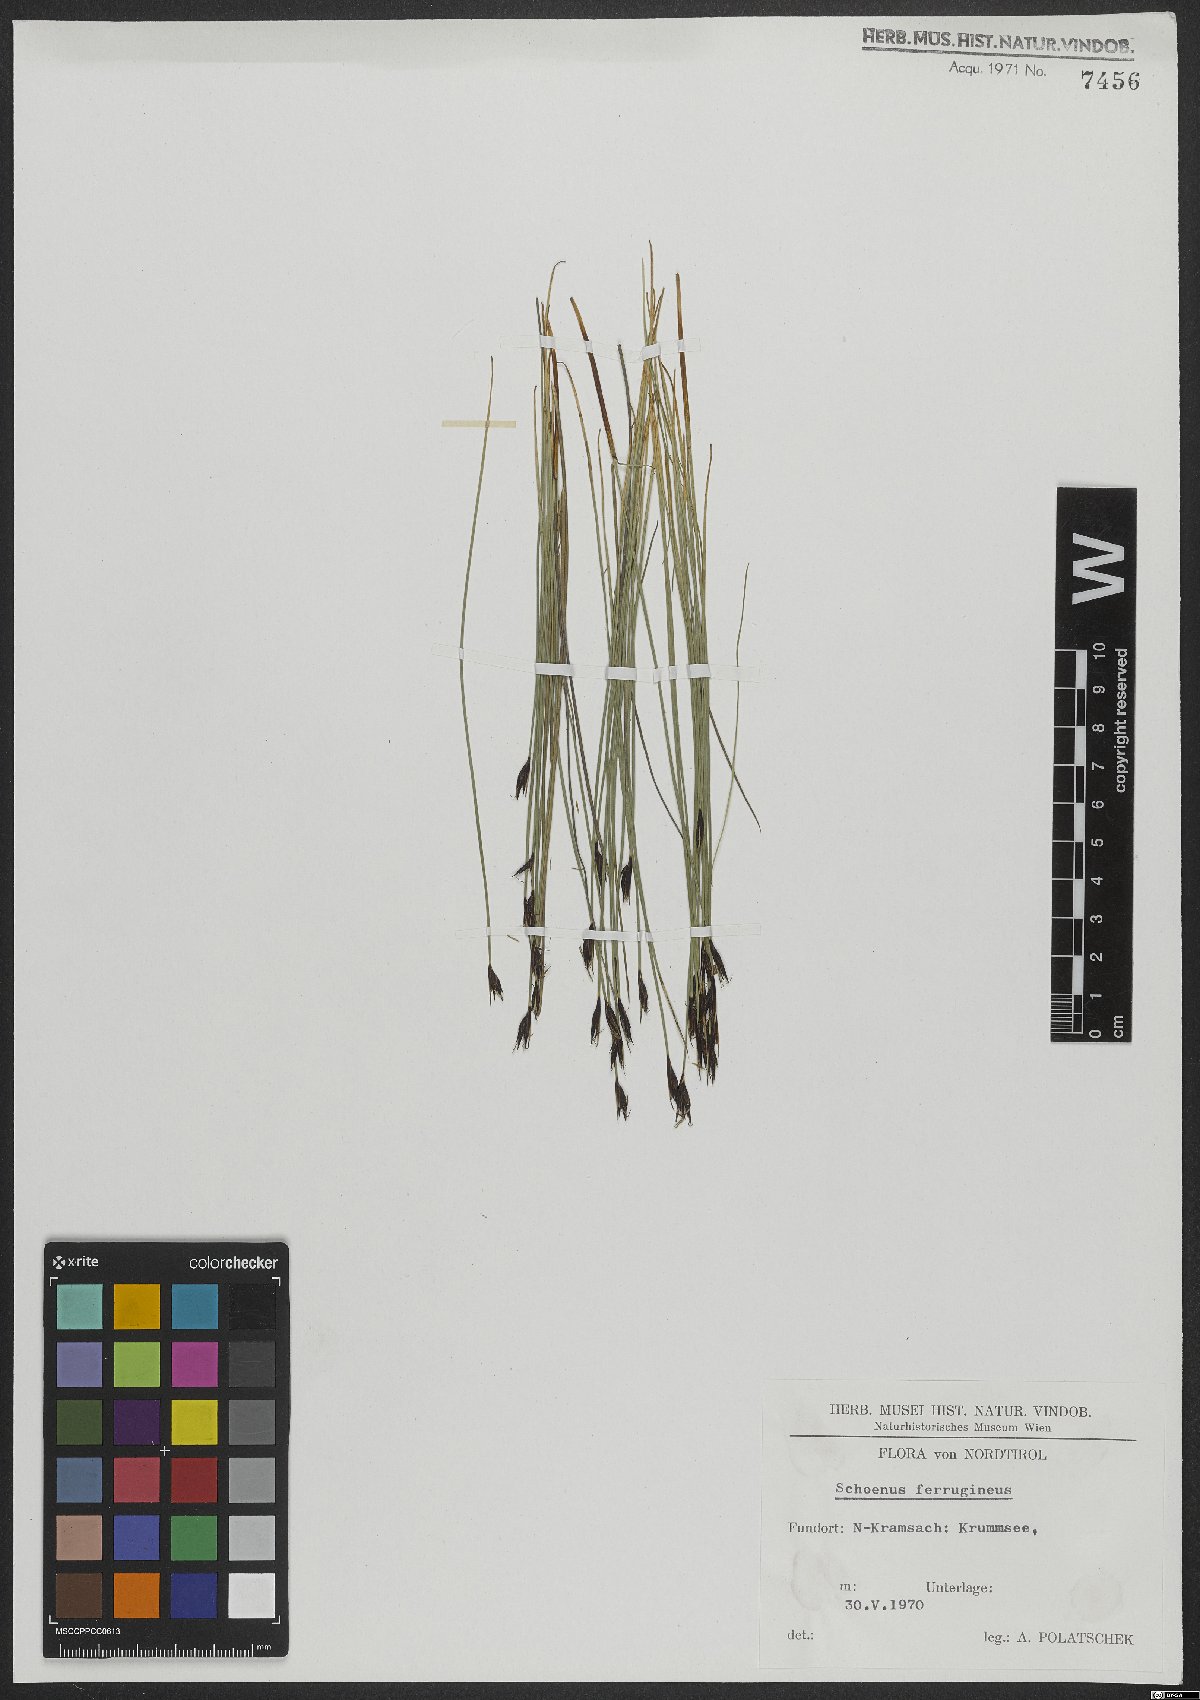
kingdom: Plantae
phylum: Tracheophyta
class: Liliopsida
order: Poales
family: Cyperaceae
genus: Schoenus
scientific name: Schoenus ferrugineus
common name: Brown bog-rush
